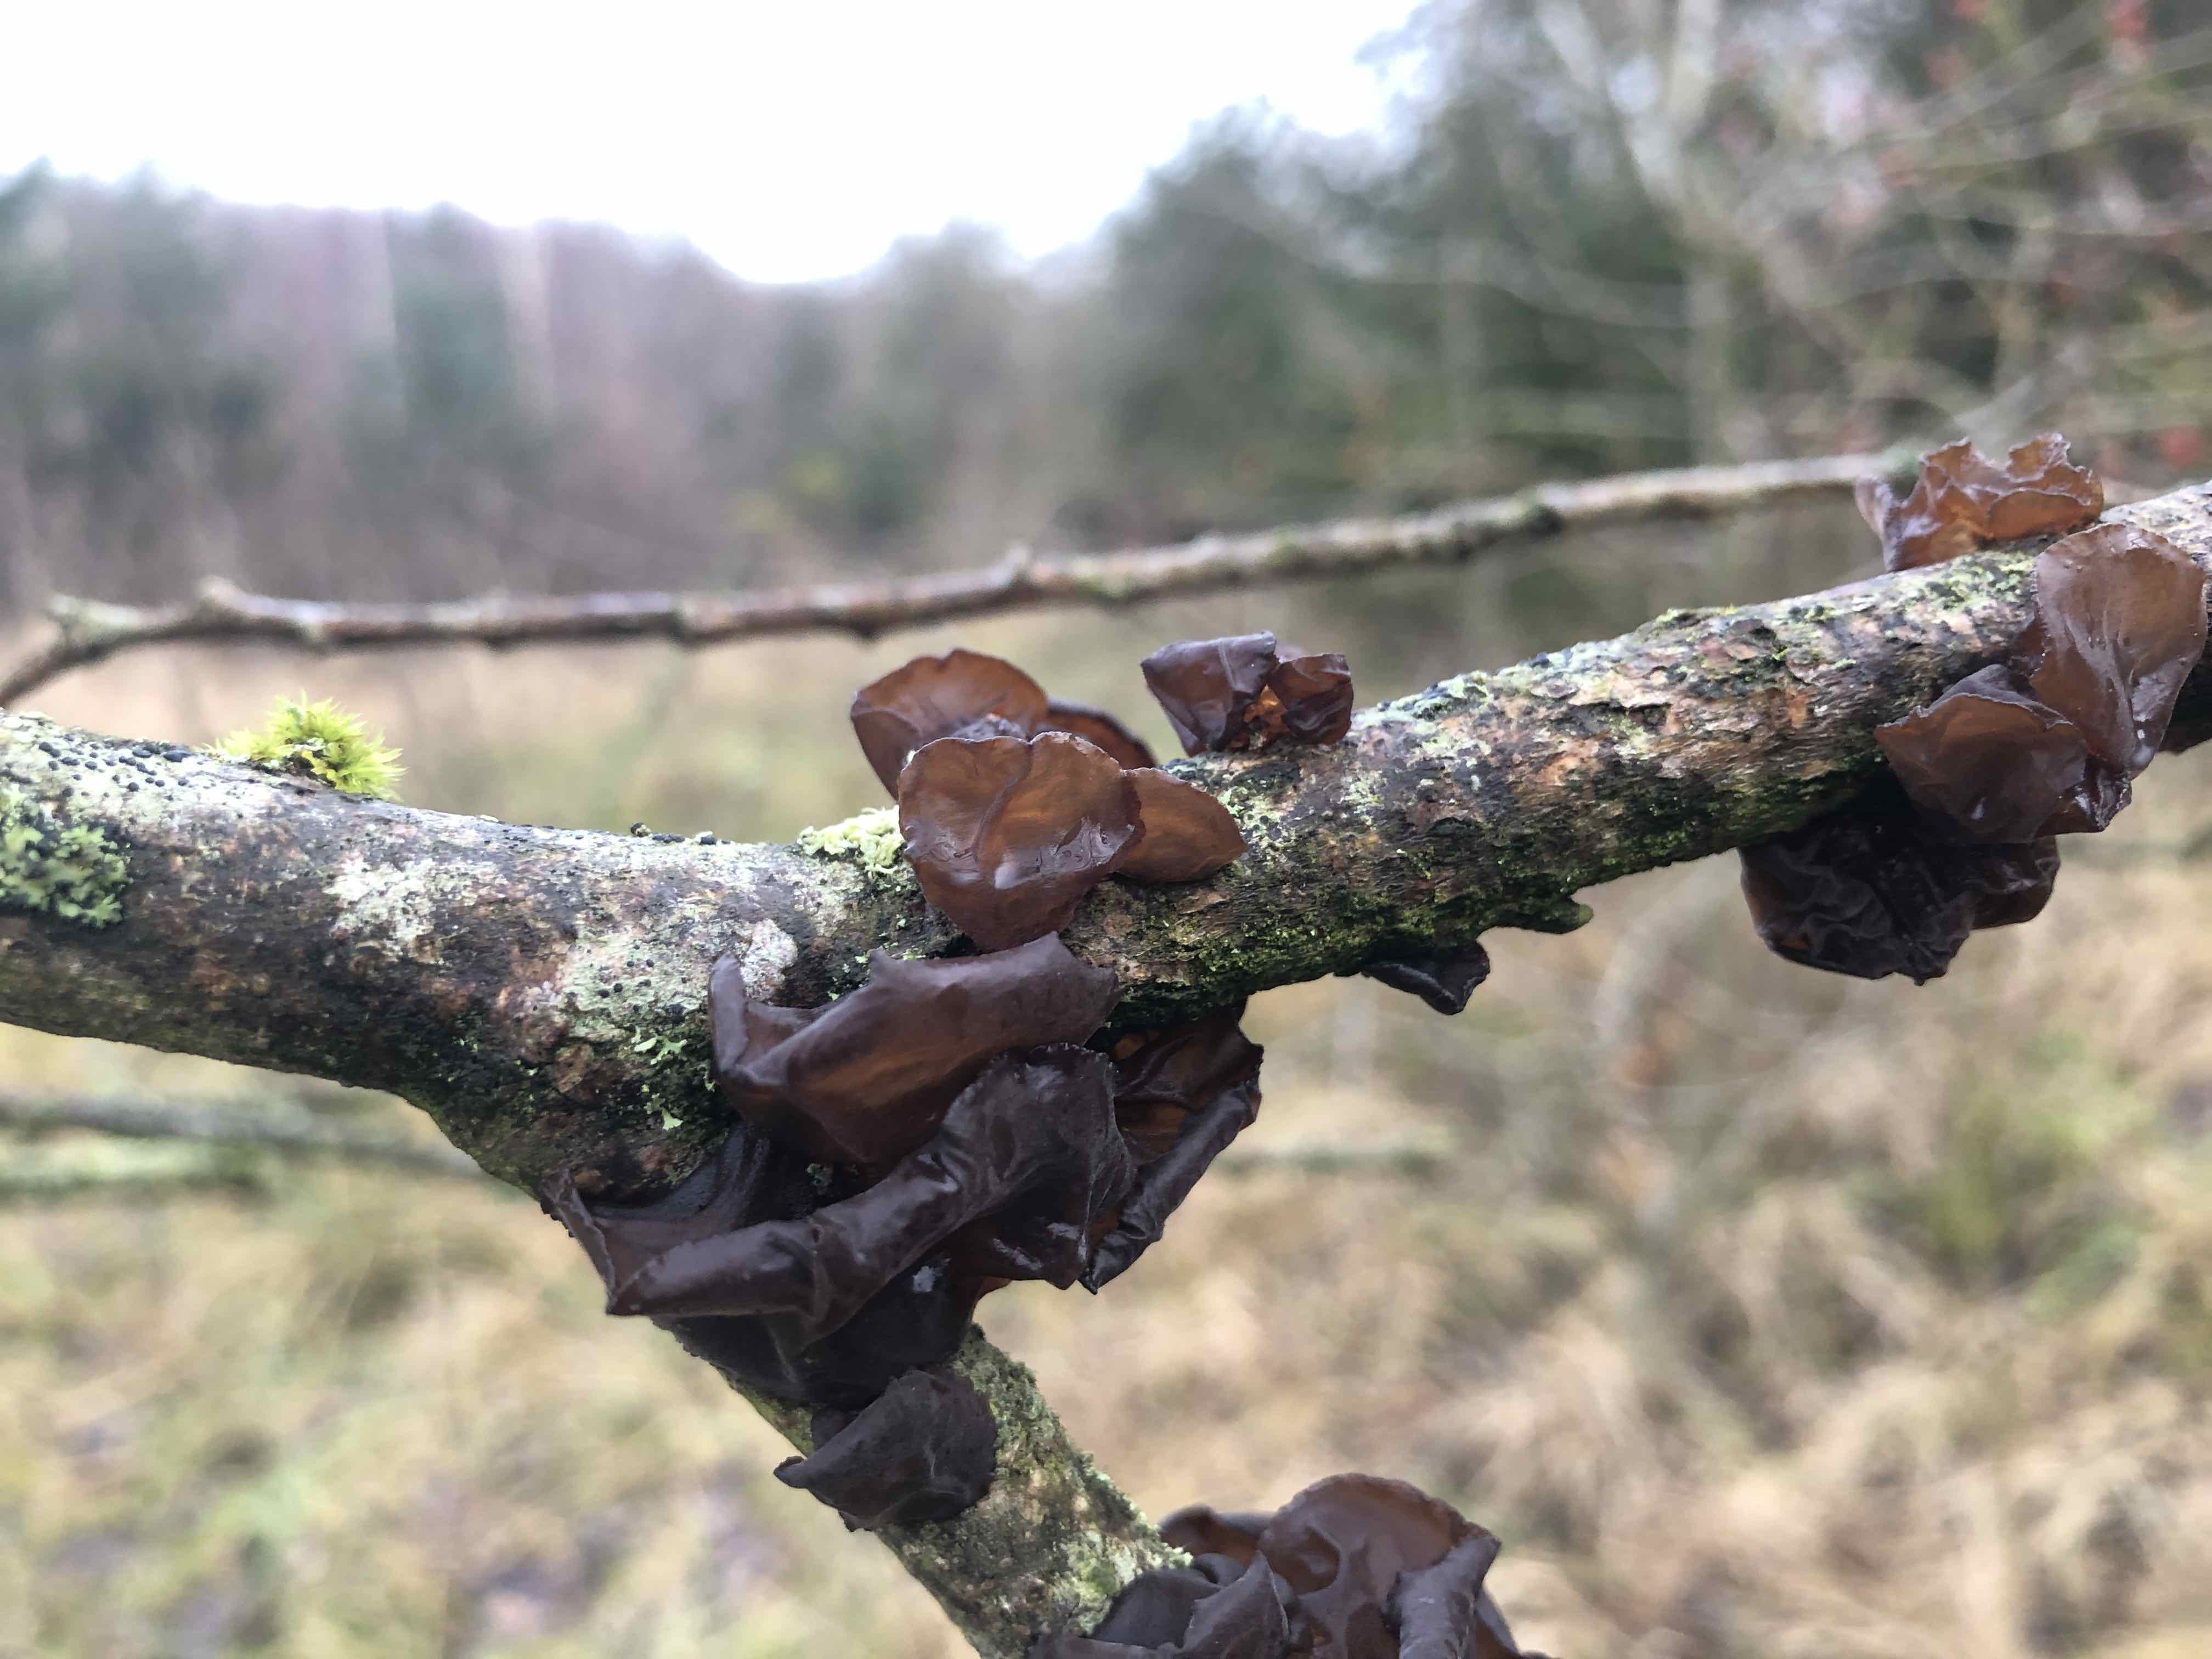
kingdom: Fungi
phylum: Basidiomycota
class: Agaricomycetes
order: Auriculariales
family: Auriculariaceae
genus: Exidia
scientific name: Exidia recisa
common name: pile-bævretop
